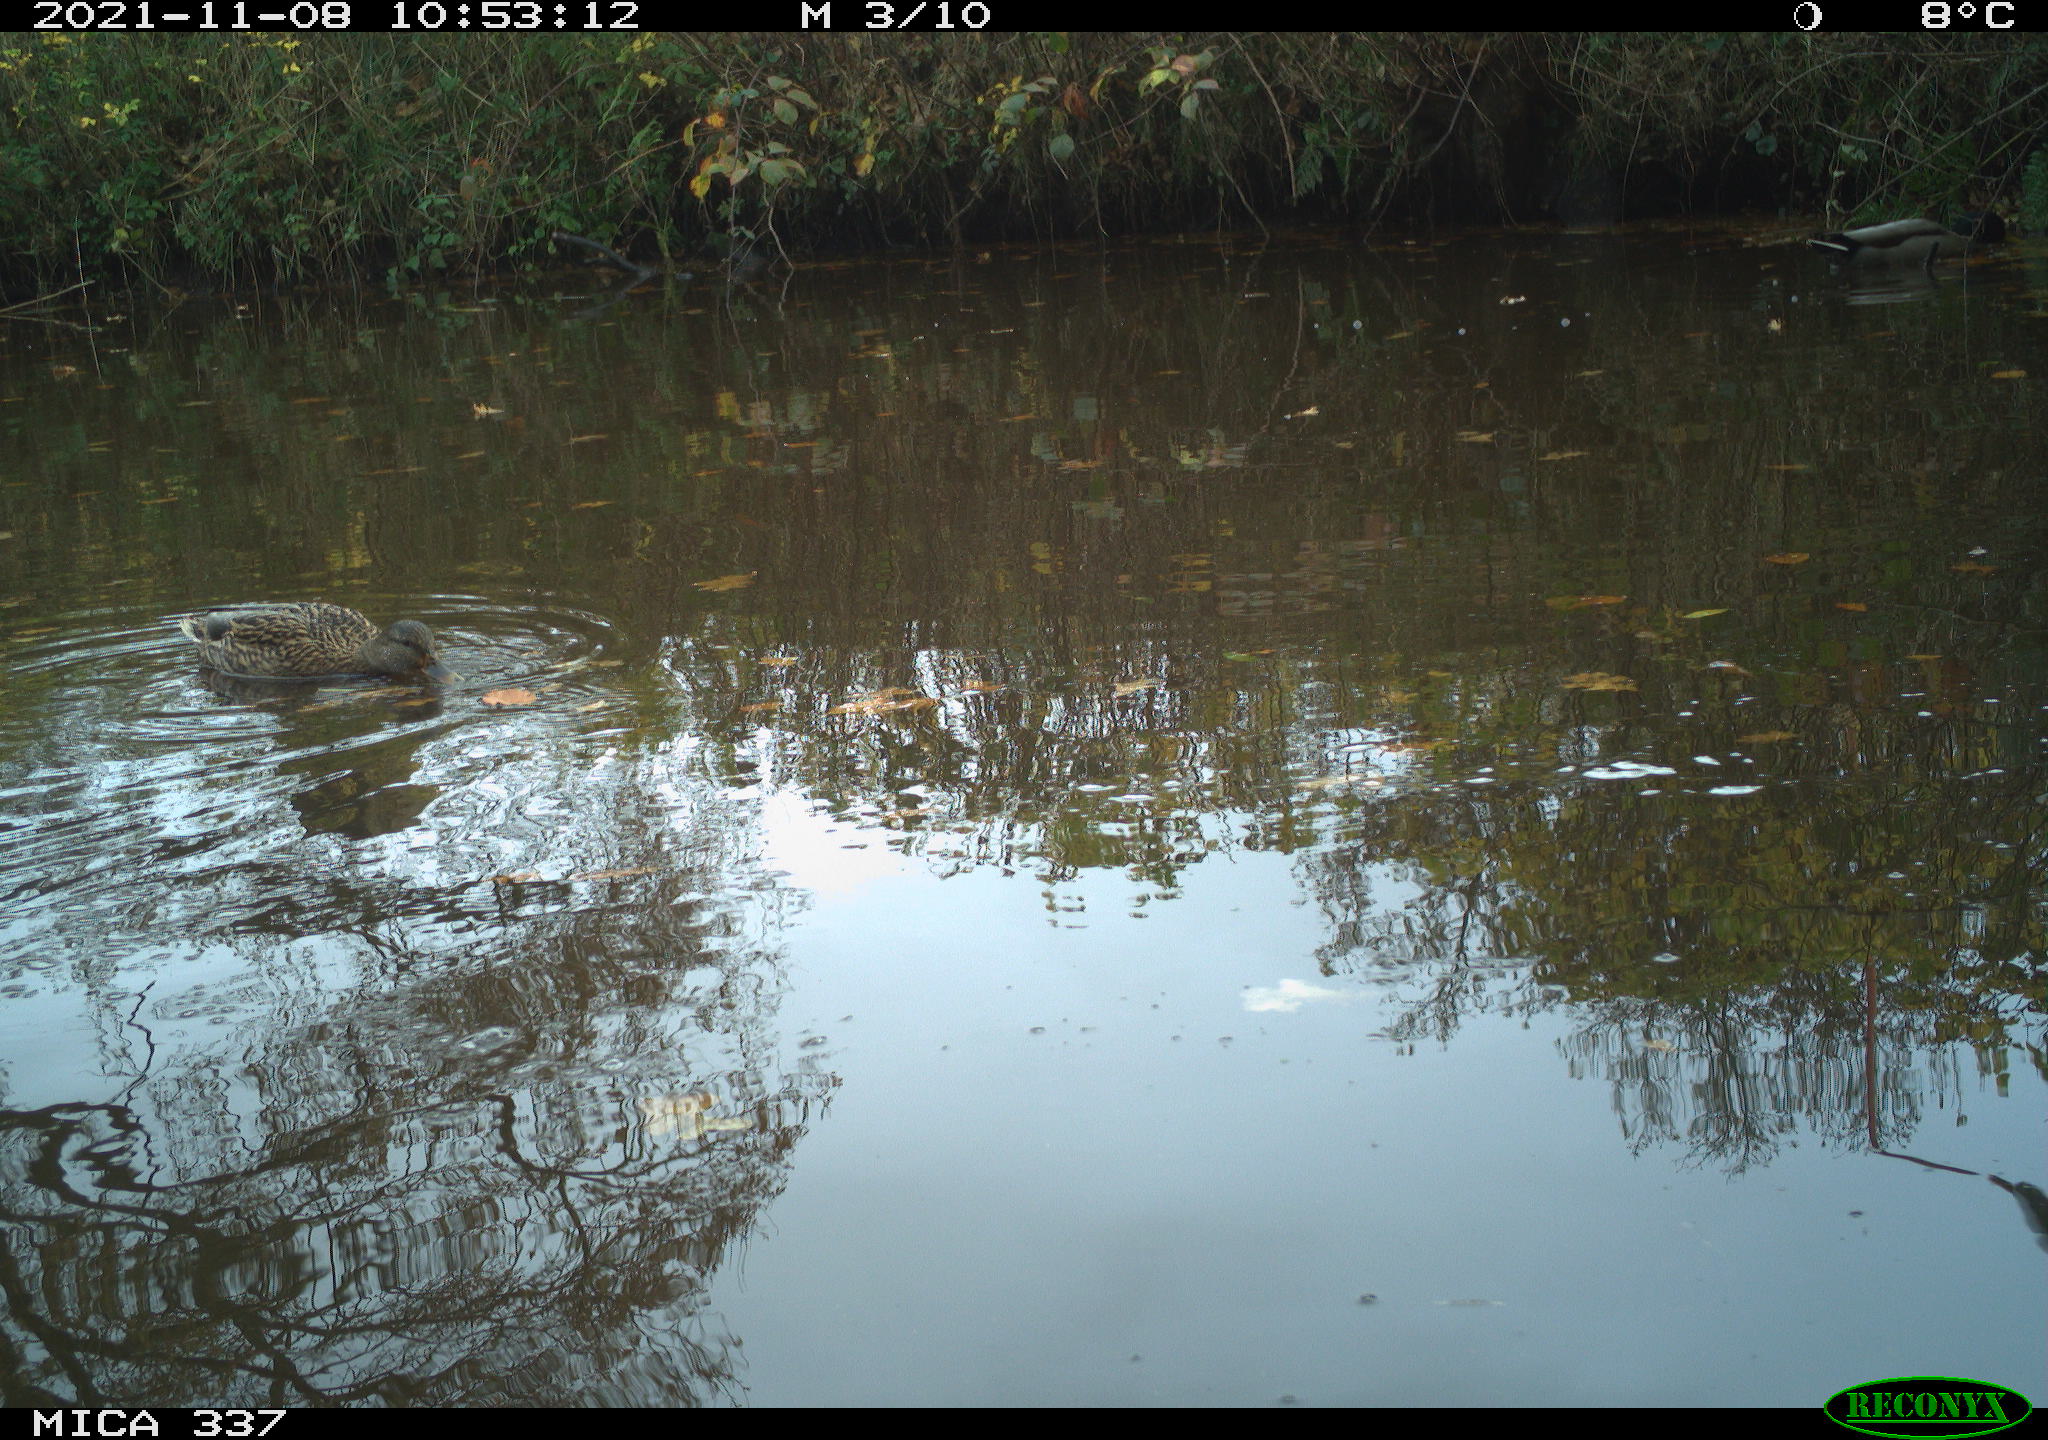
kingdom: Animalia
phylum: Chordata
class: Aves
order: Anseriformes
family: Anatidae
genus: Anas
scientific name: Anas platyrhynchos
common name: Mallard
